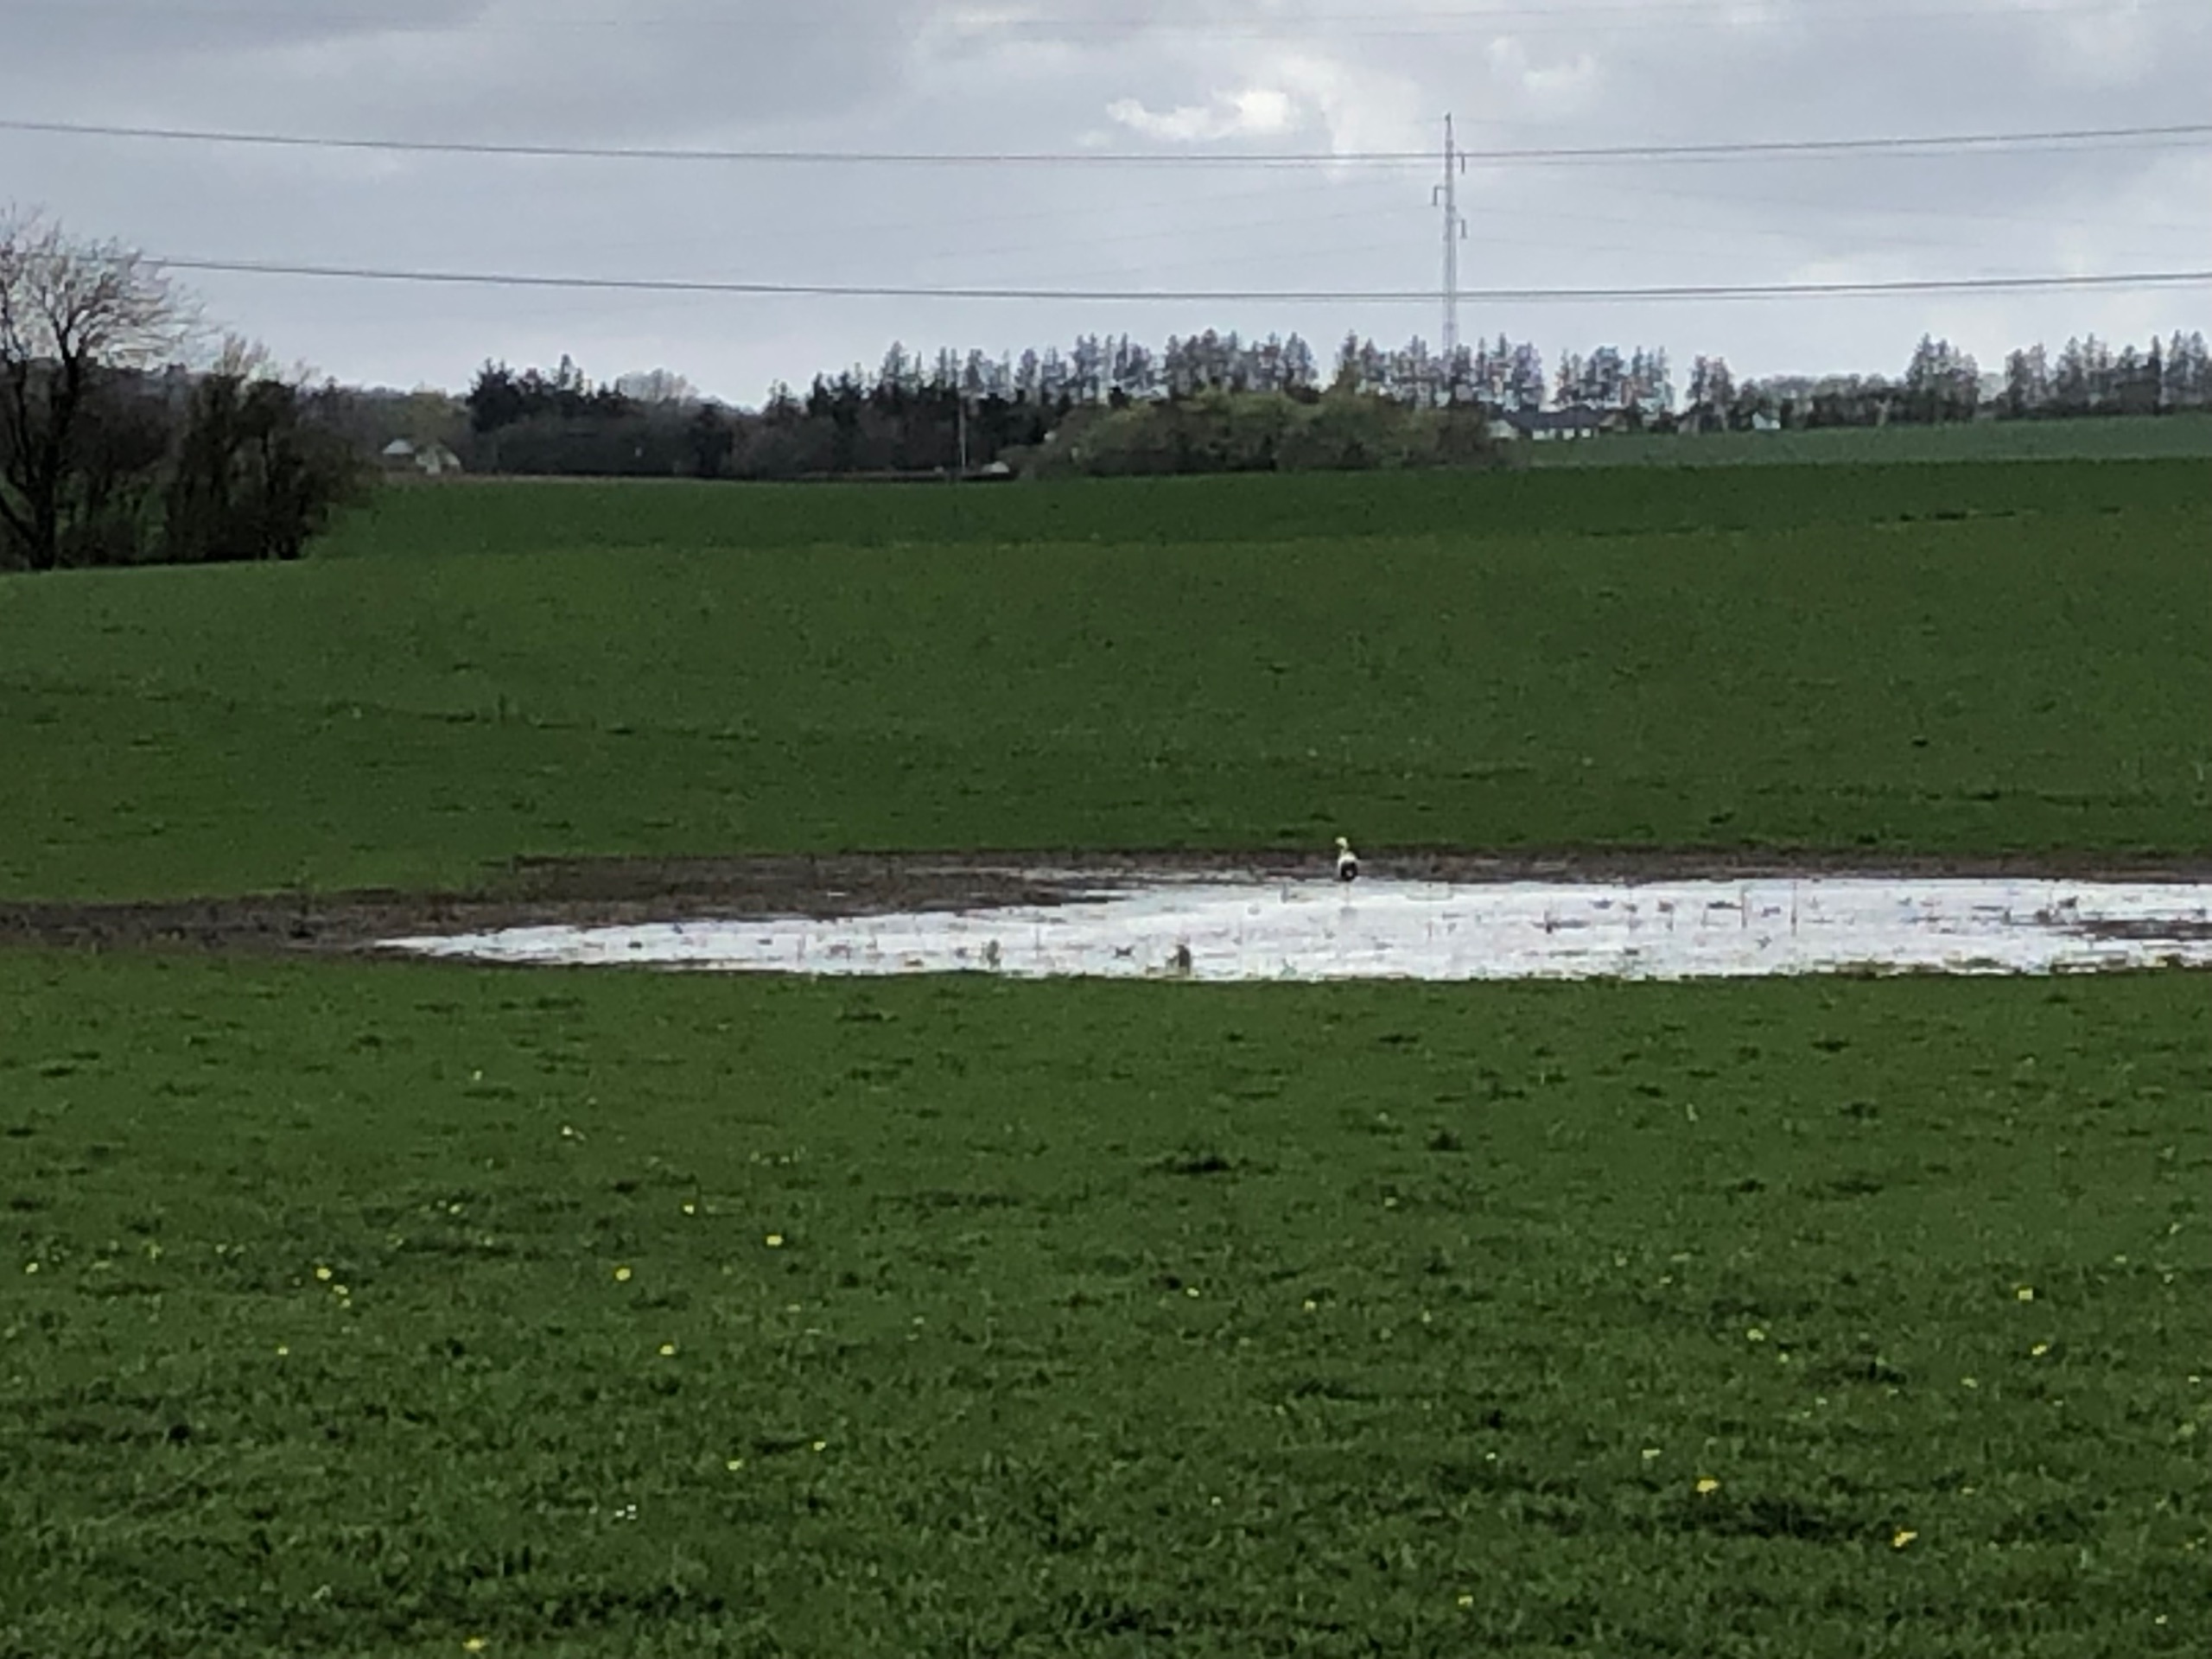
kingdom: Animalia
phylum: Chordata
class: Aves
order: Ciconiiformes
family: Ciconiidae
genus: Ciconia
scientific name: Ciconia ciconia
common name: Hvid stork
